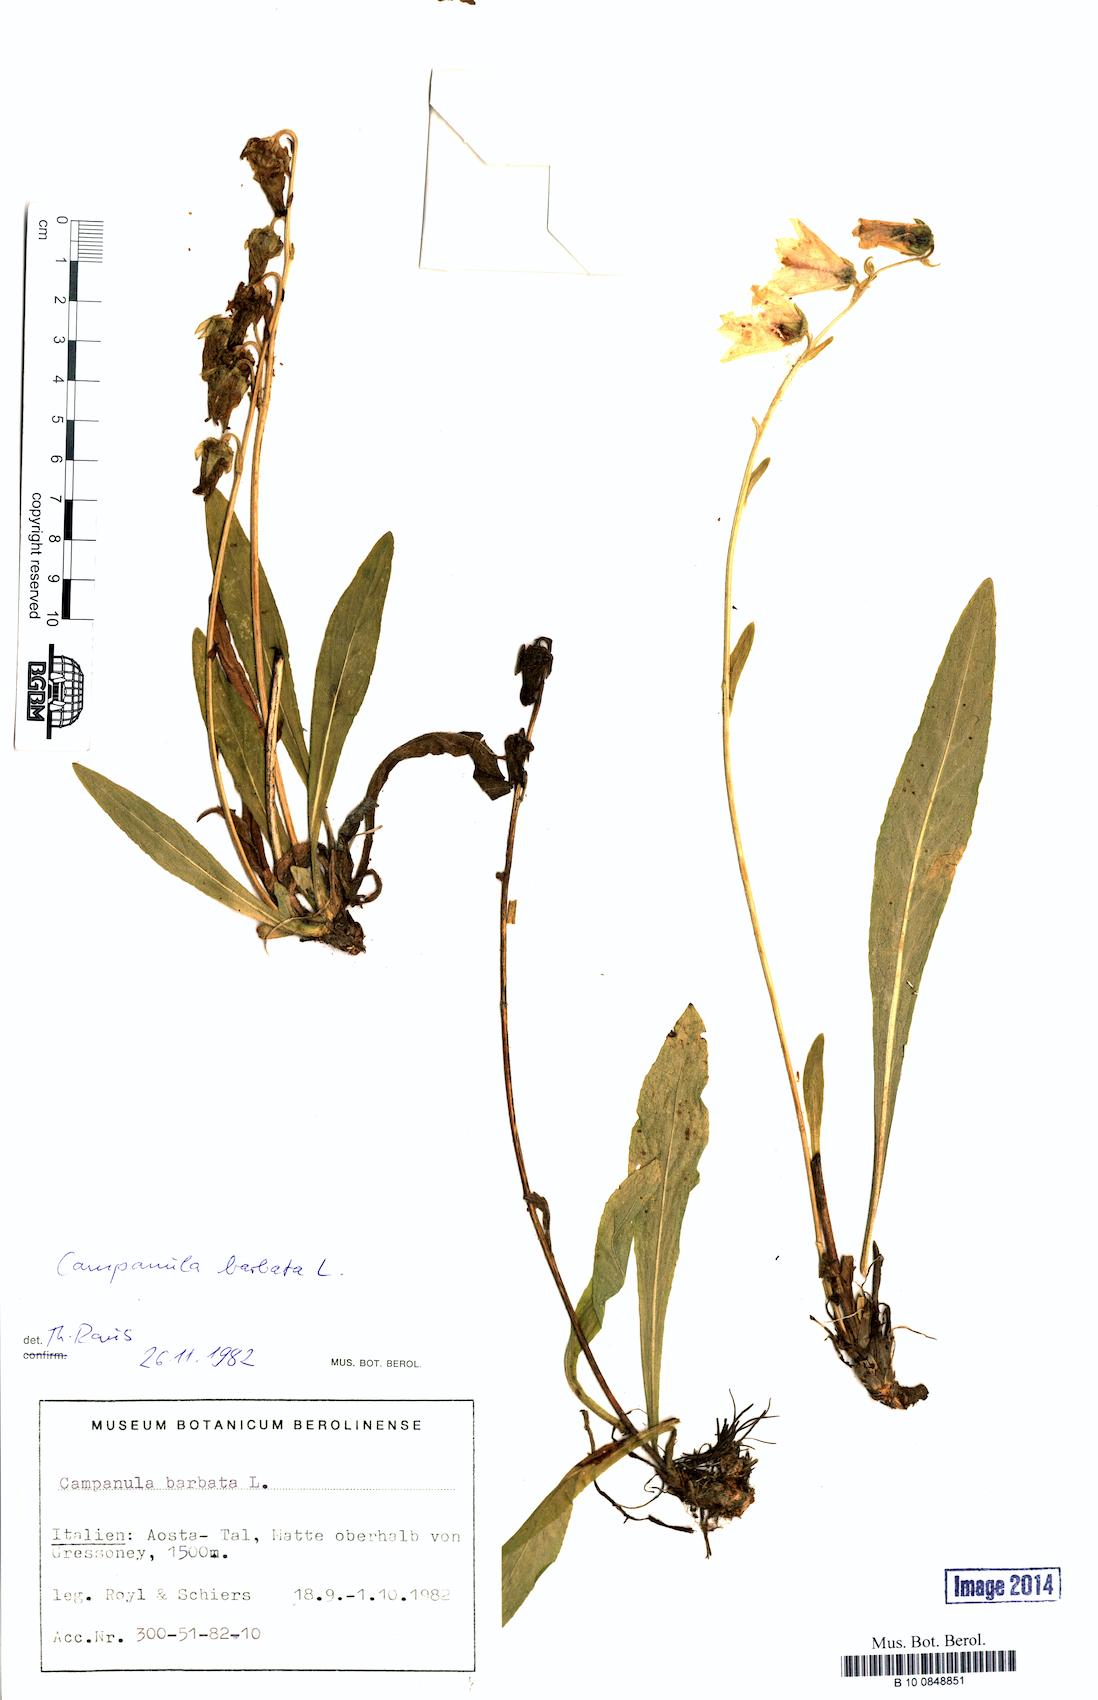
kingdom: Plantae
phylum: Tracheophyta
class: Magnoliopsida
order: Asterales
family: Campanulaceae
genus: Campanula
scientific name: Campanula barbata
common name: Bearded bellflower
